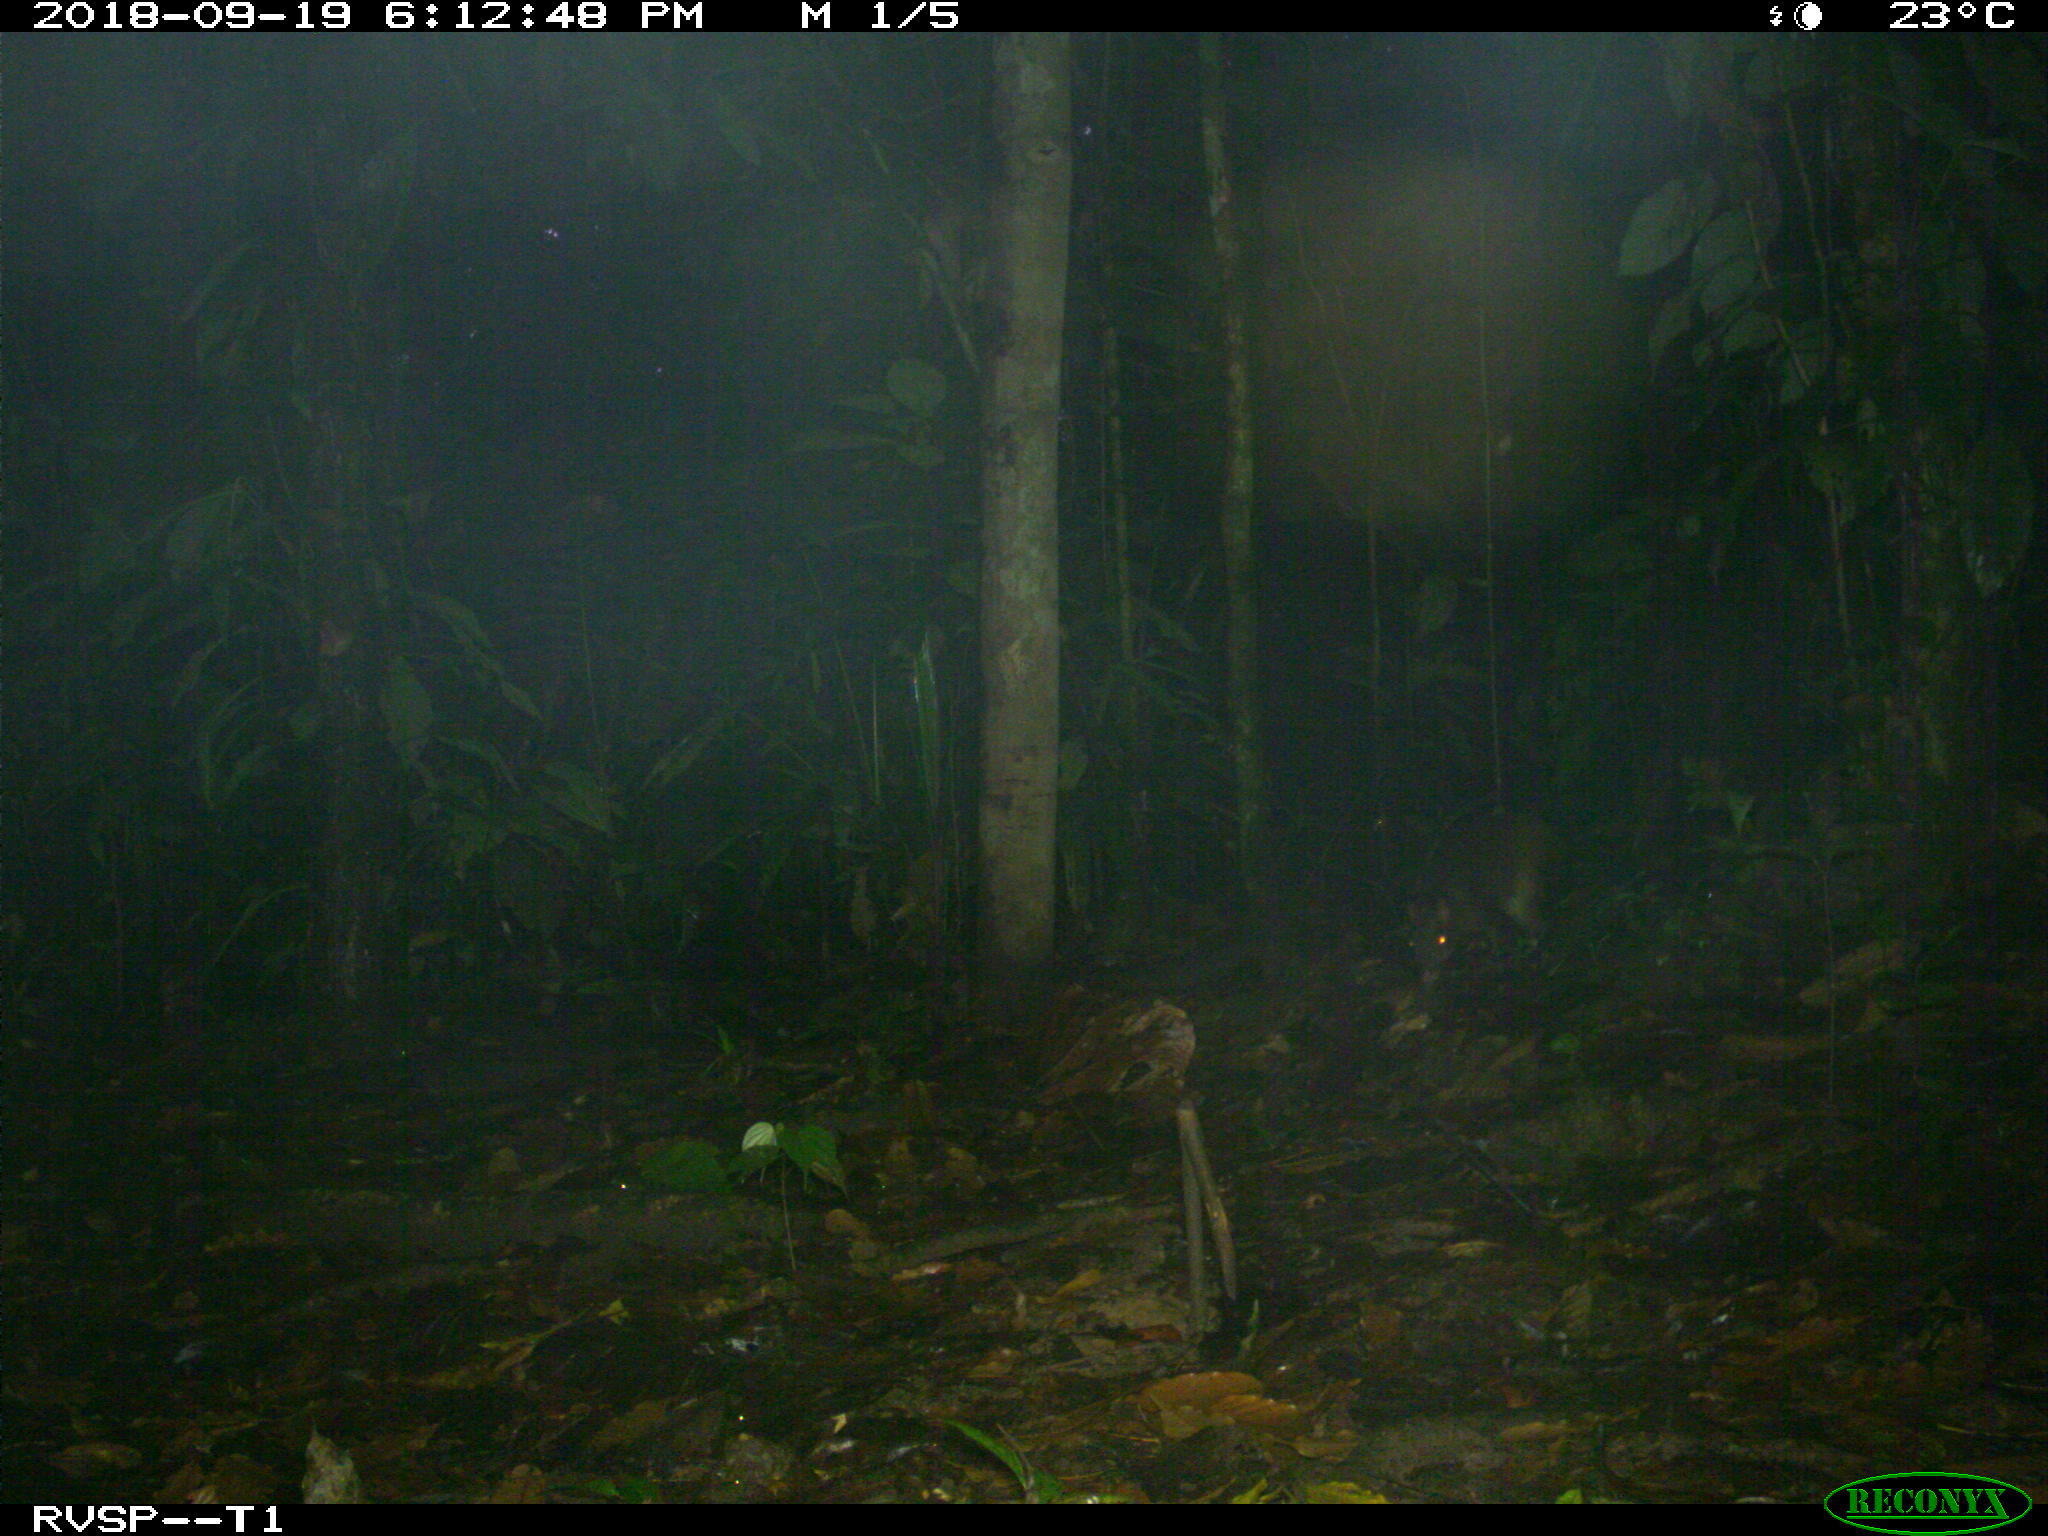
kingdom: Animalia
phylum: Chordata
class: Mammalia
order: Rodentia
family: Dasyproctidae
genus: Dasyprocta
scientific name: Dasyprocta punctata
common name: Central american agouti
